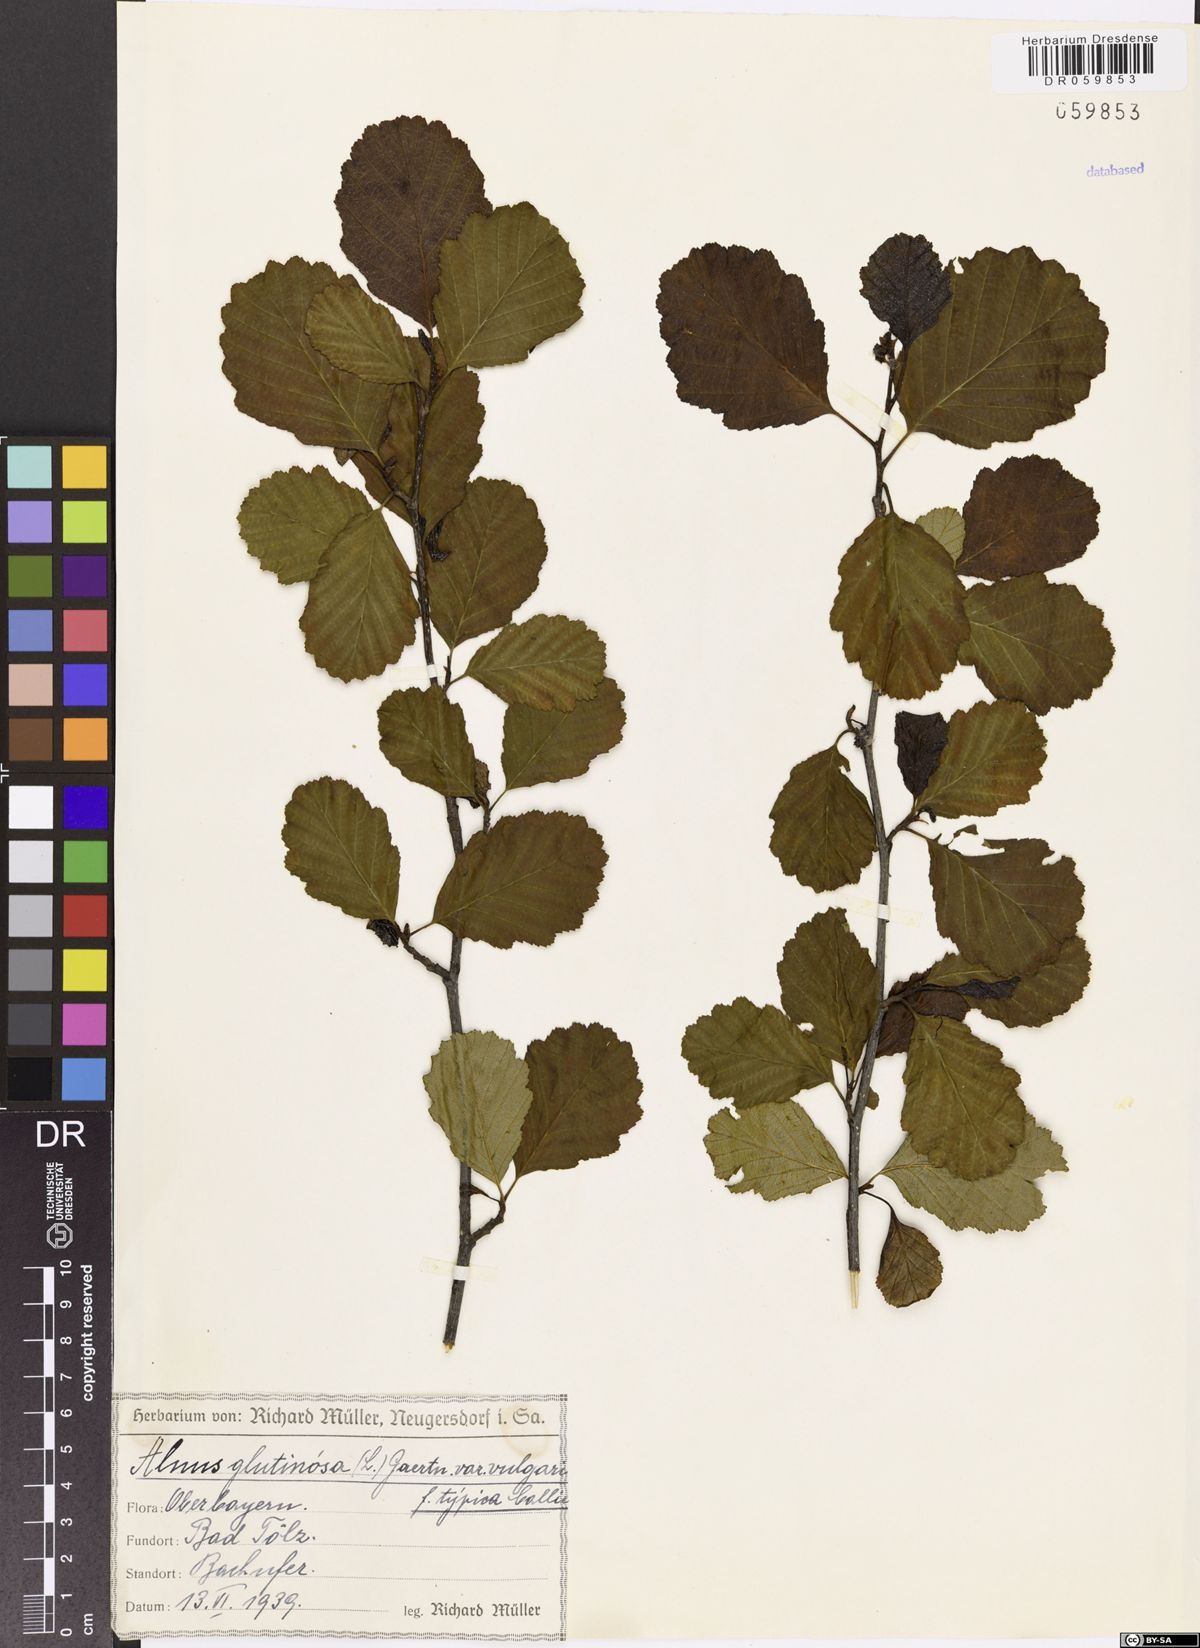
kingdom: Plantae
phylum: Tracheophyta
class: Magnoliopsida
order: Fagales
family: Betulaceae
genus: Alnus
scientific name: Alnus glutinosa
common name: Black alder
